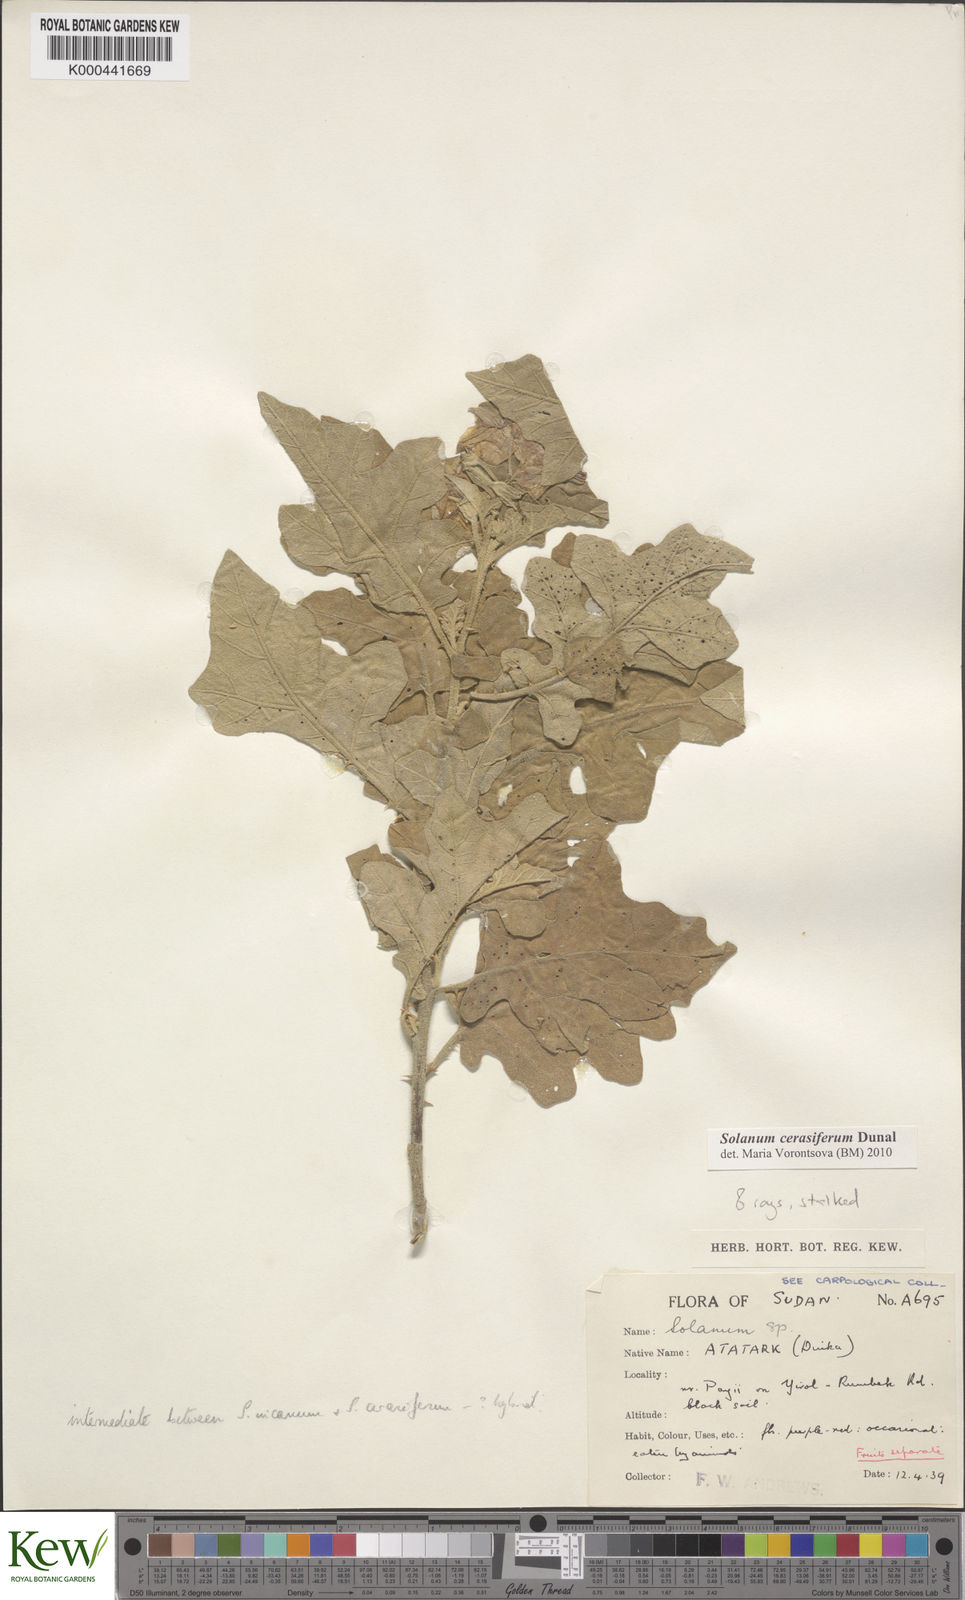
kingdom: Plantae
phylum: Tracheophyta
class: Magnoliopsida
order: Solanales
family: Solanaceae
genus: Solanum
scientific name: Solanum cerasiferum
